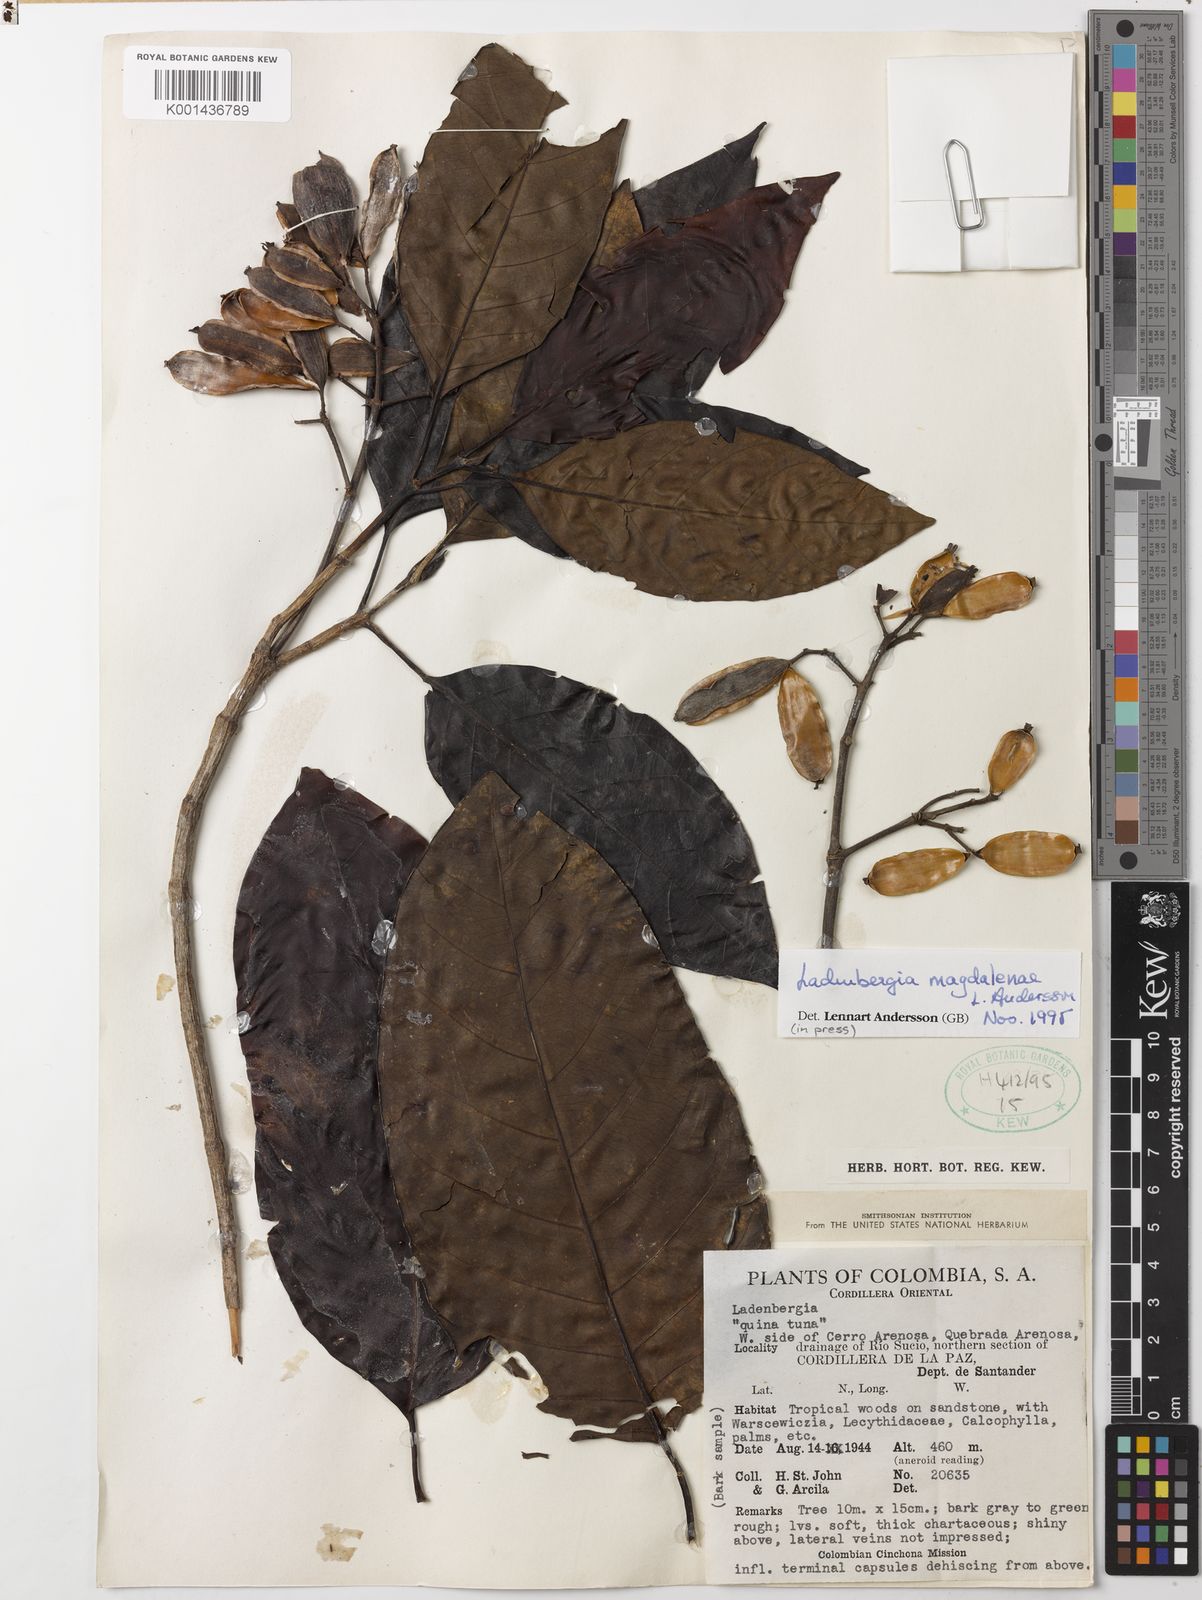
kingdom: Plantae
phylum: Tracheophyta
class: Magnoliopsida
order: Gentianales
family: Rubiaceae
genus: Ladenbergia
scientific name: Ladenbergia magdalenae
